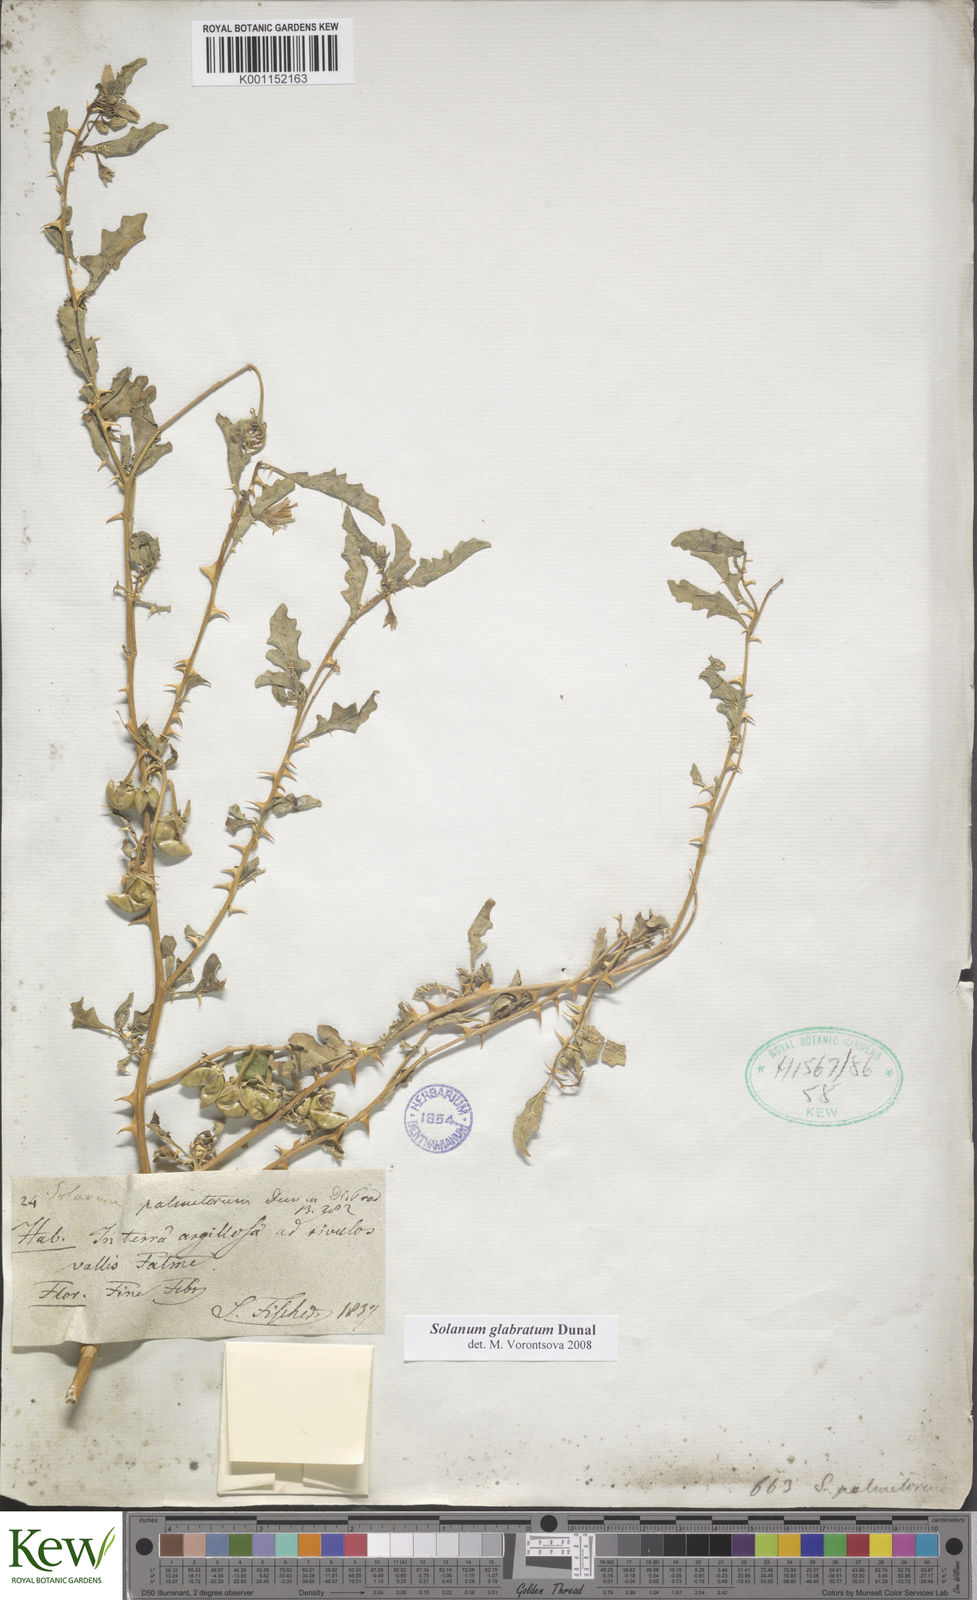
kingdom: Plantae
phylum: Tracheophyta
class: Magnoliopsida
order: Solanales
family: Solanaceae
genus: Solanum
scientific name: Solanum glabratum
